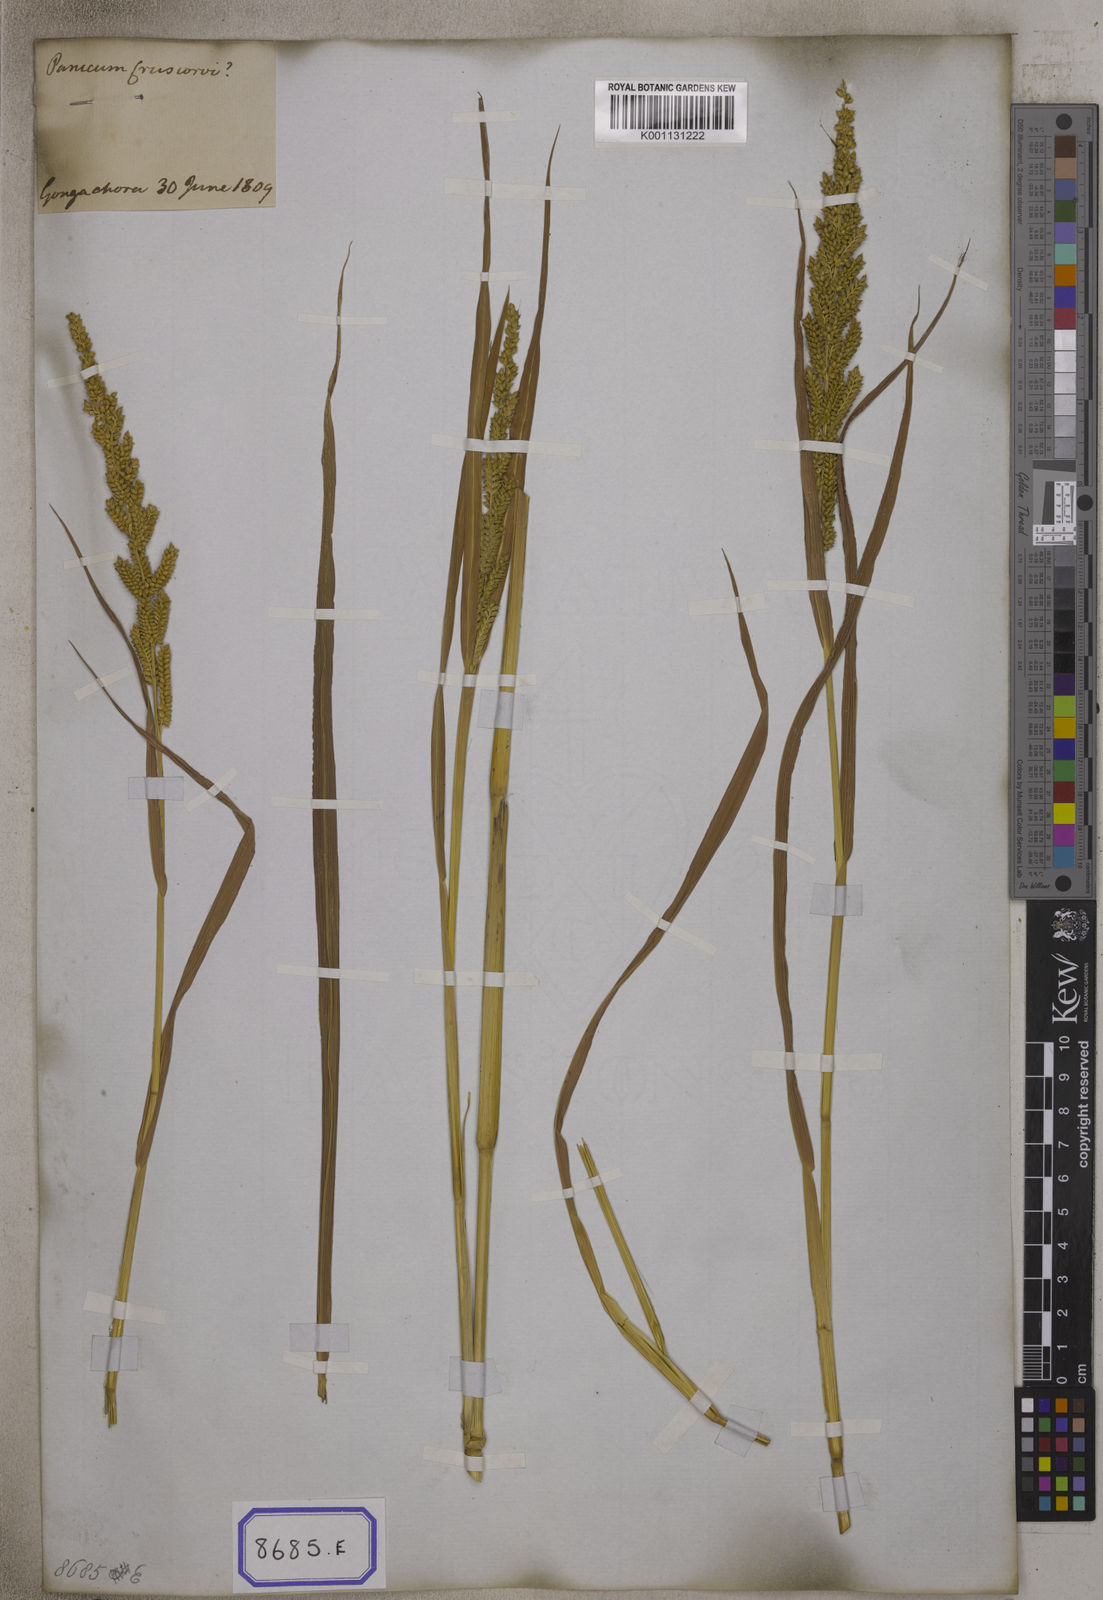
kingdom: Plantae
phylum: Tracheophyta
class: Liliopsida
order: Poales
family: Poaceae
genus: Echinochloa
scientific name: Echinochloa colonum
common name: Jungle rice
